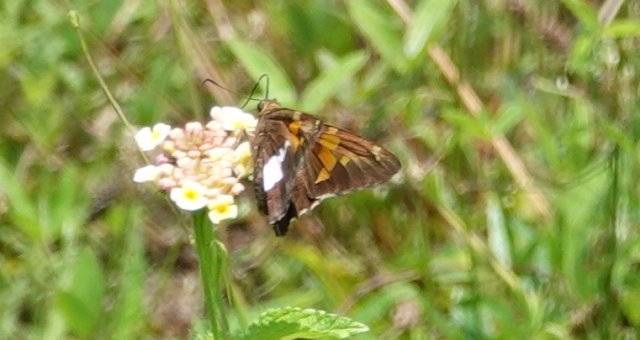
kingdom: Animalia
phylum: Arthropoda
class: Insecta
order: Lepidoptera
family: Hesperiidae
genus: Epargyreus
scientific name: Epargyreus clarus
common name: Silver-spotted Skipper
